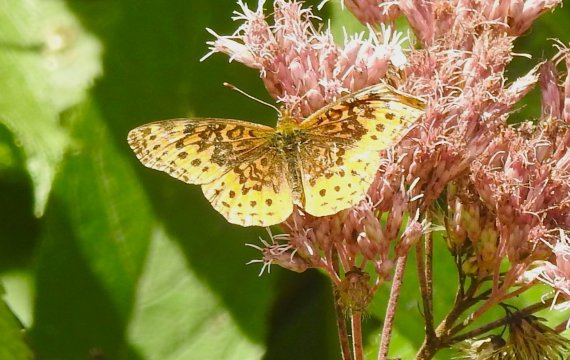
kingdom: Animalia
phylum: Arthropoda
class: Insecta
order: Lepidoptera
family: Nymphalidae
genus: Clossiana
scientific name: Clossiana toddi
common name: Meadow Fritillary
